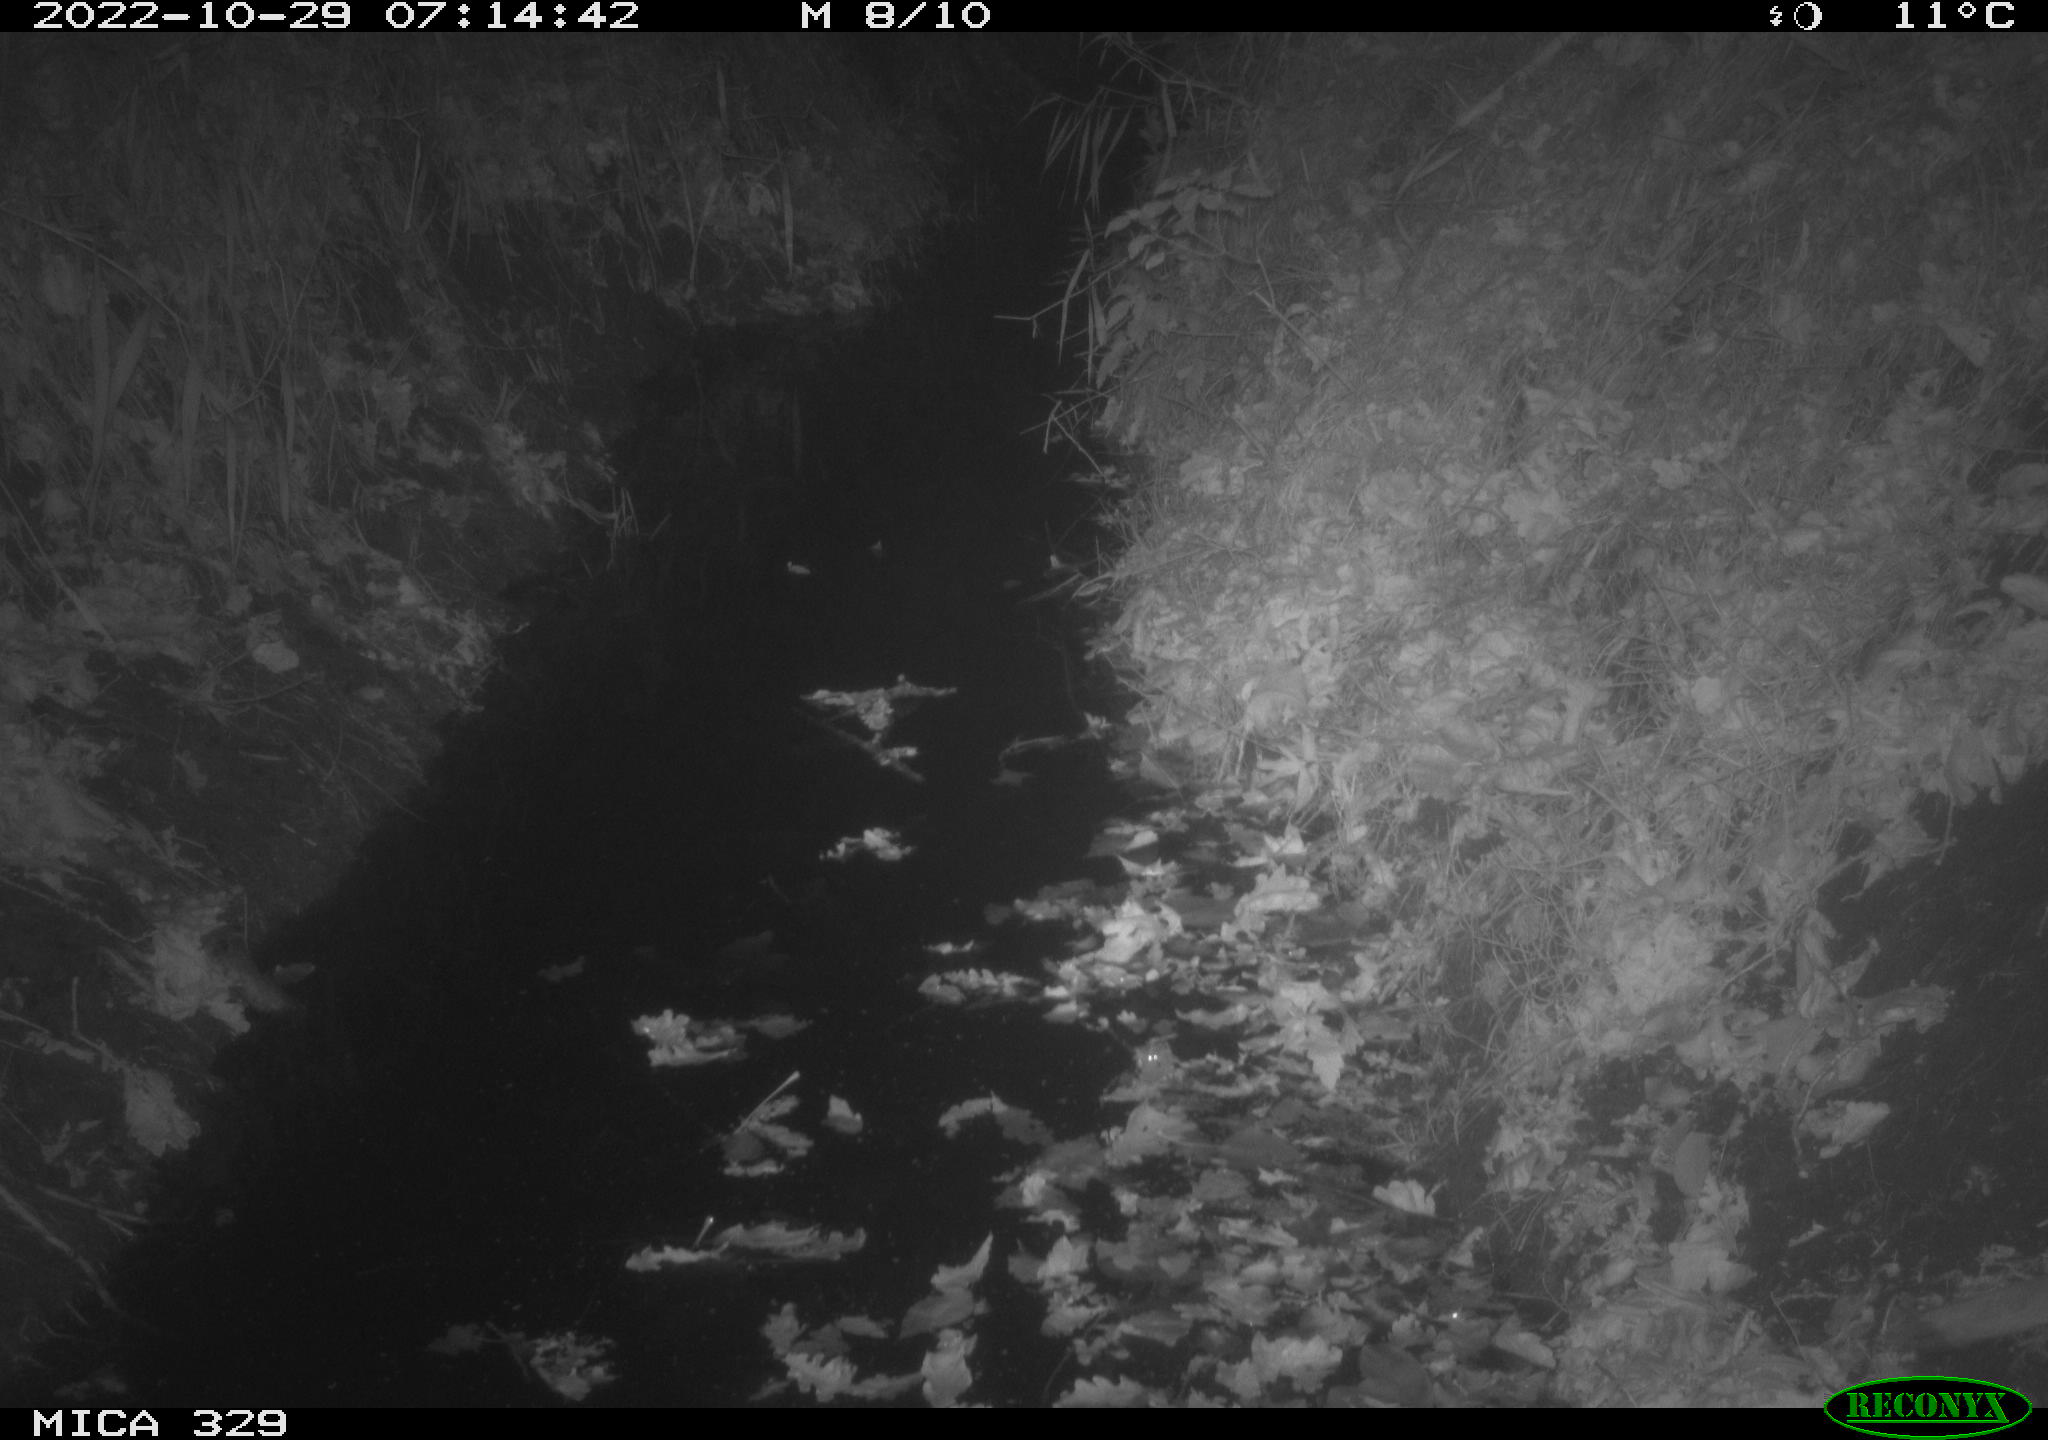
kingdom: Animalia
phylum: Chordata
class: Mammalia
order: Rodentia
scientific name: Rodentia
